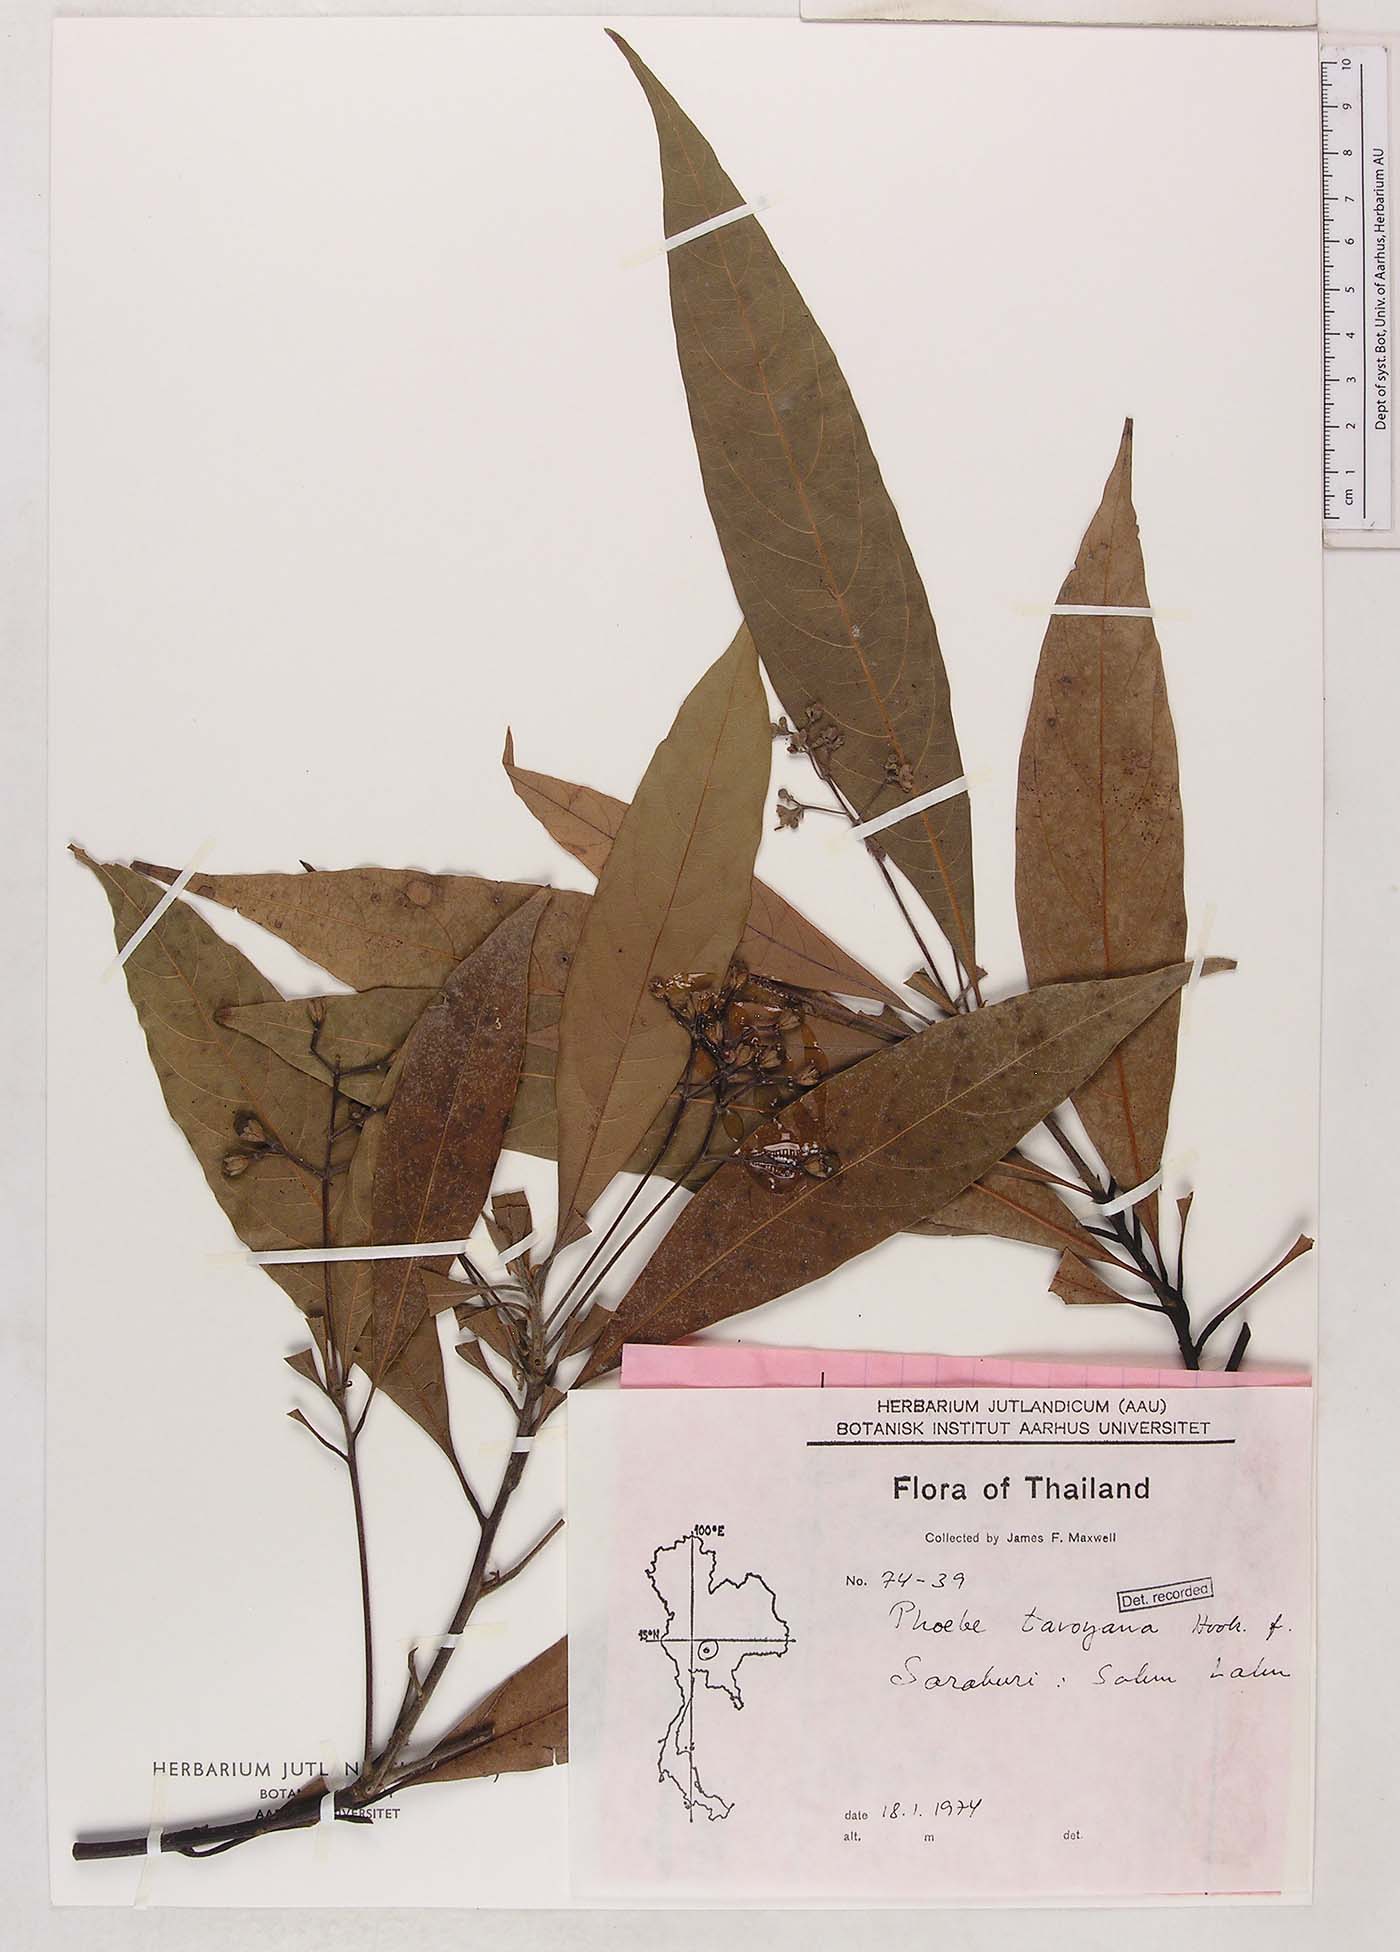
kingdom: Plantae
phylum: Tracheophyta
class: Magnoliopsida
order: Laurales
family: Lauraceae
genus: Phoebe
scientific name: Phoebe tavoyana
